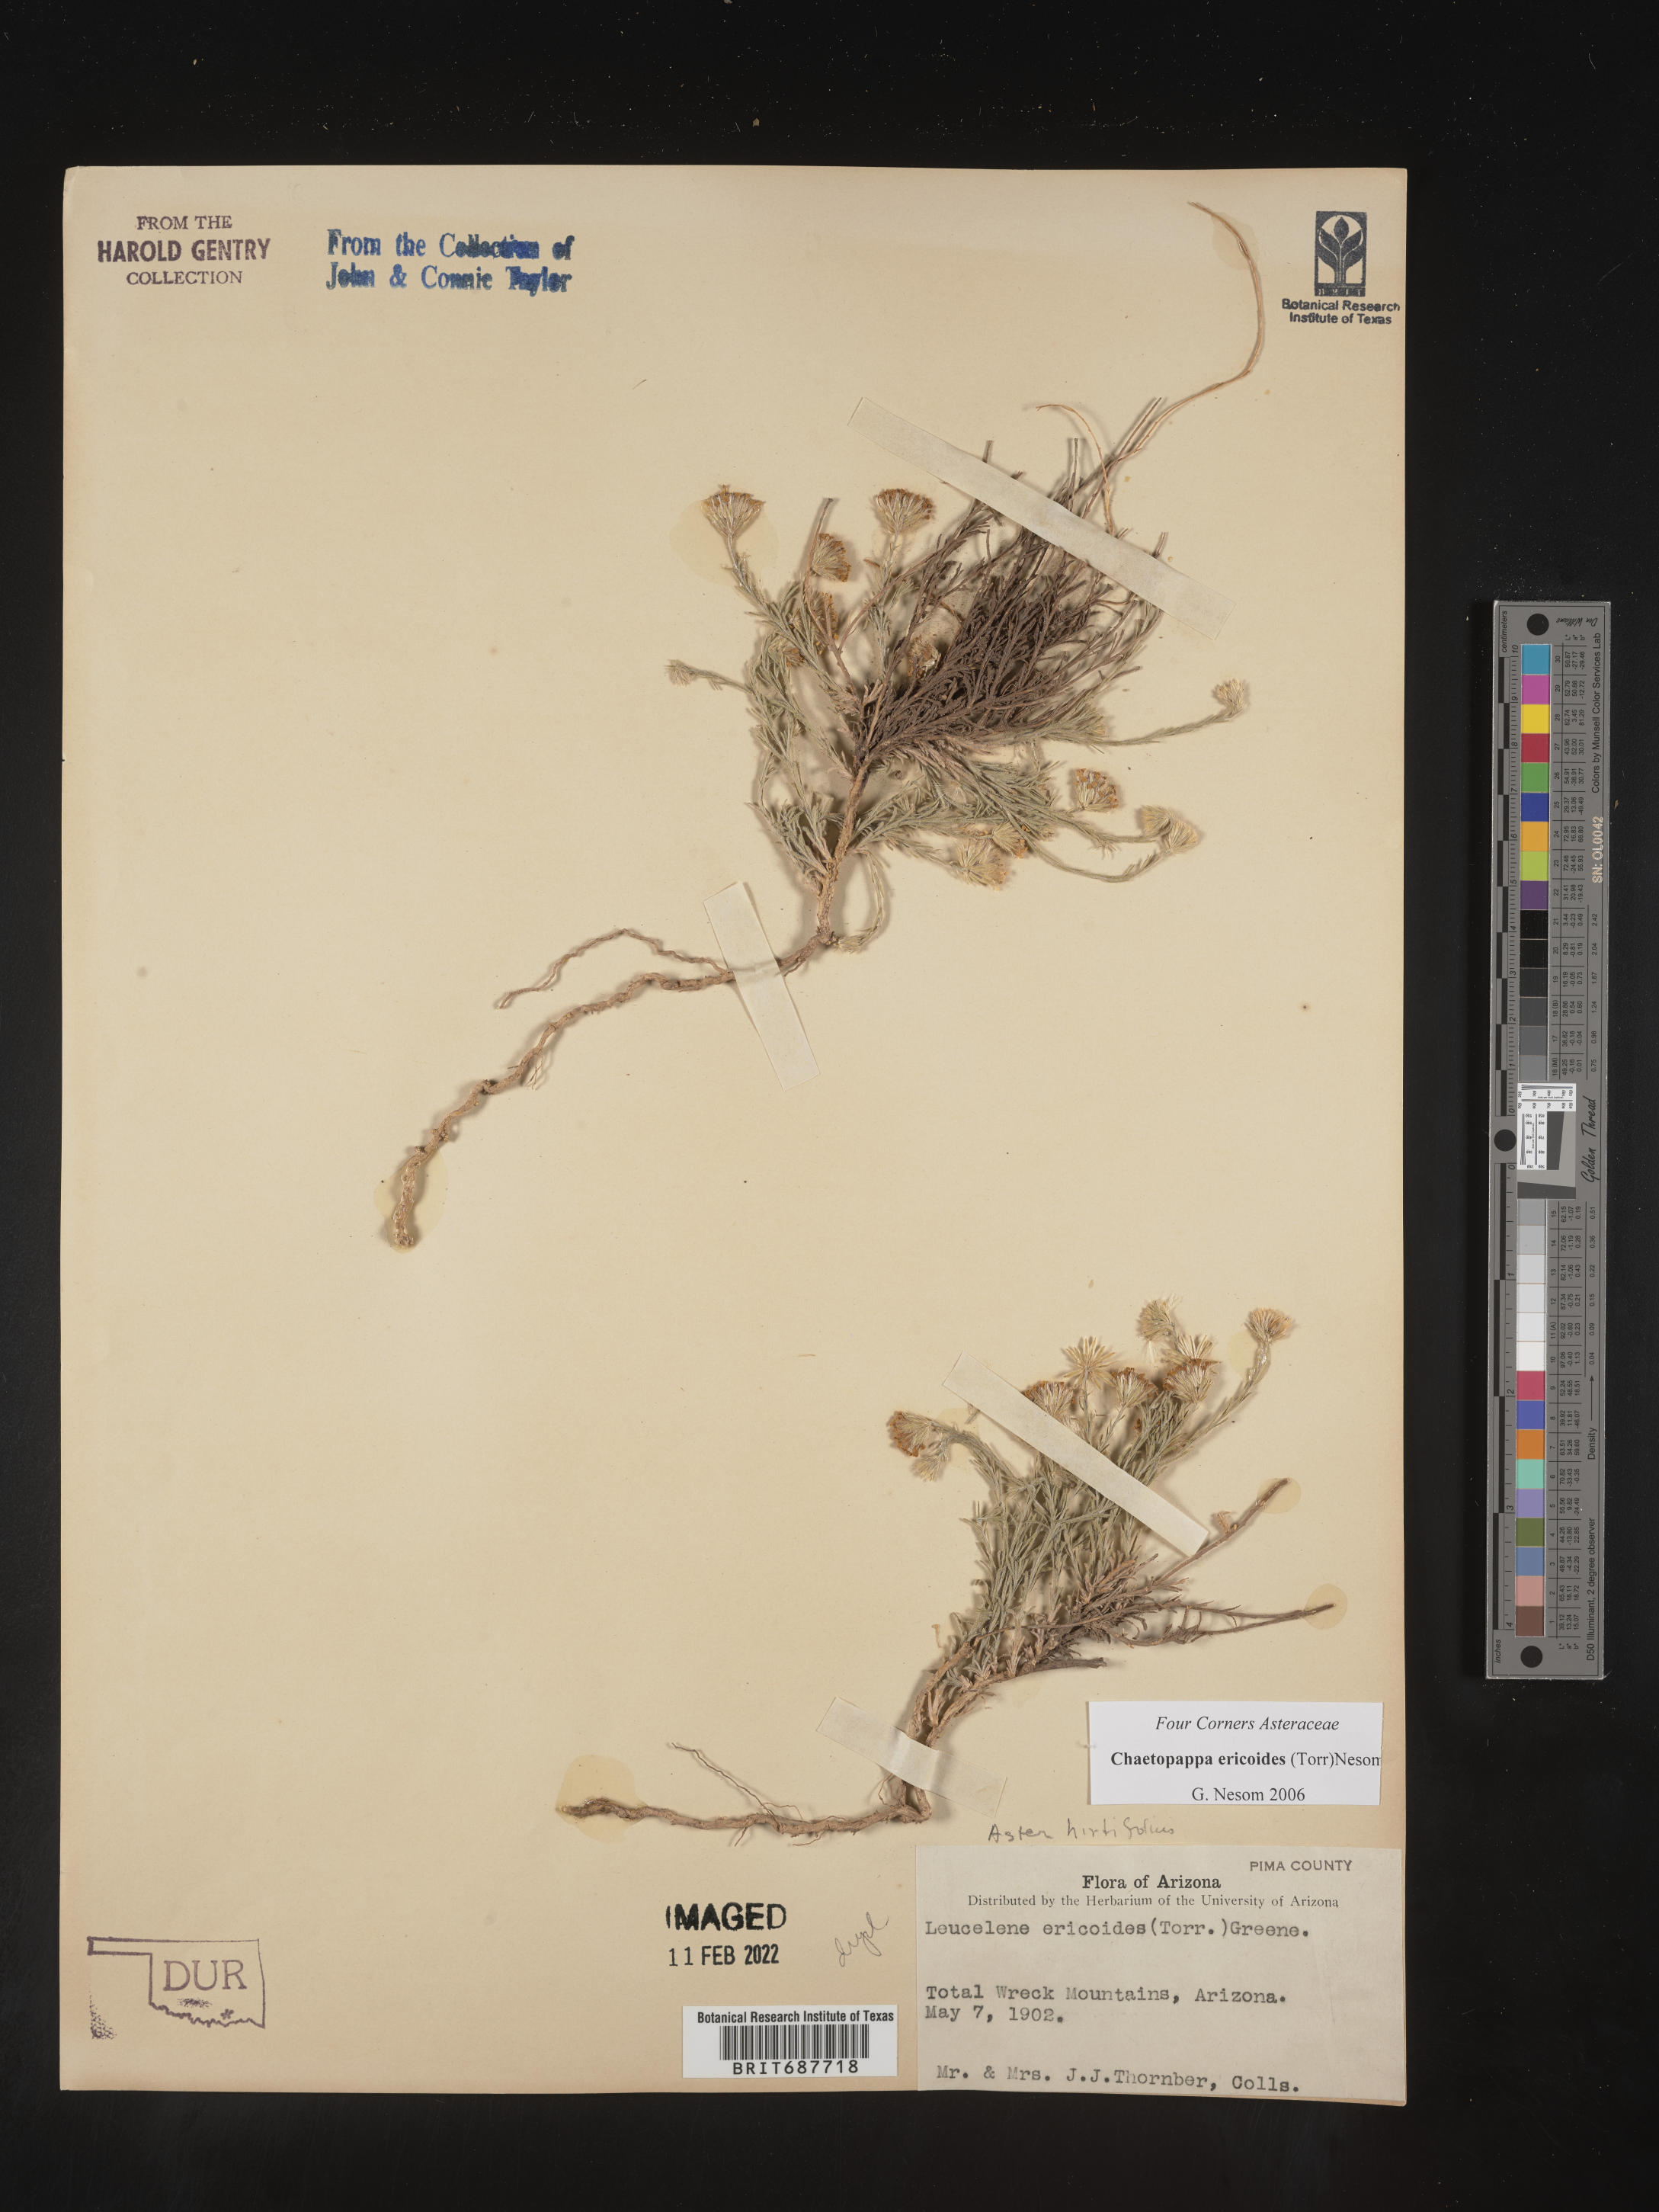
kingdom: Plantae
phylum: Tracheophyta
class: Magnoliopsida
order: Asterales
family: Asteraceae
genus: Chaetopappa
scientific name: Chaetopappa ericoides
